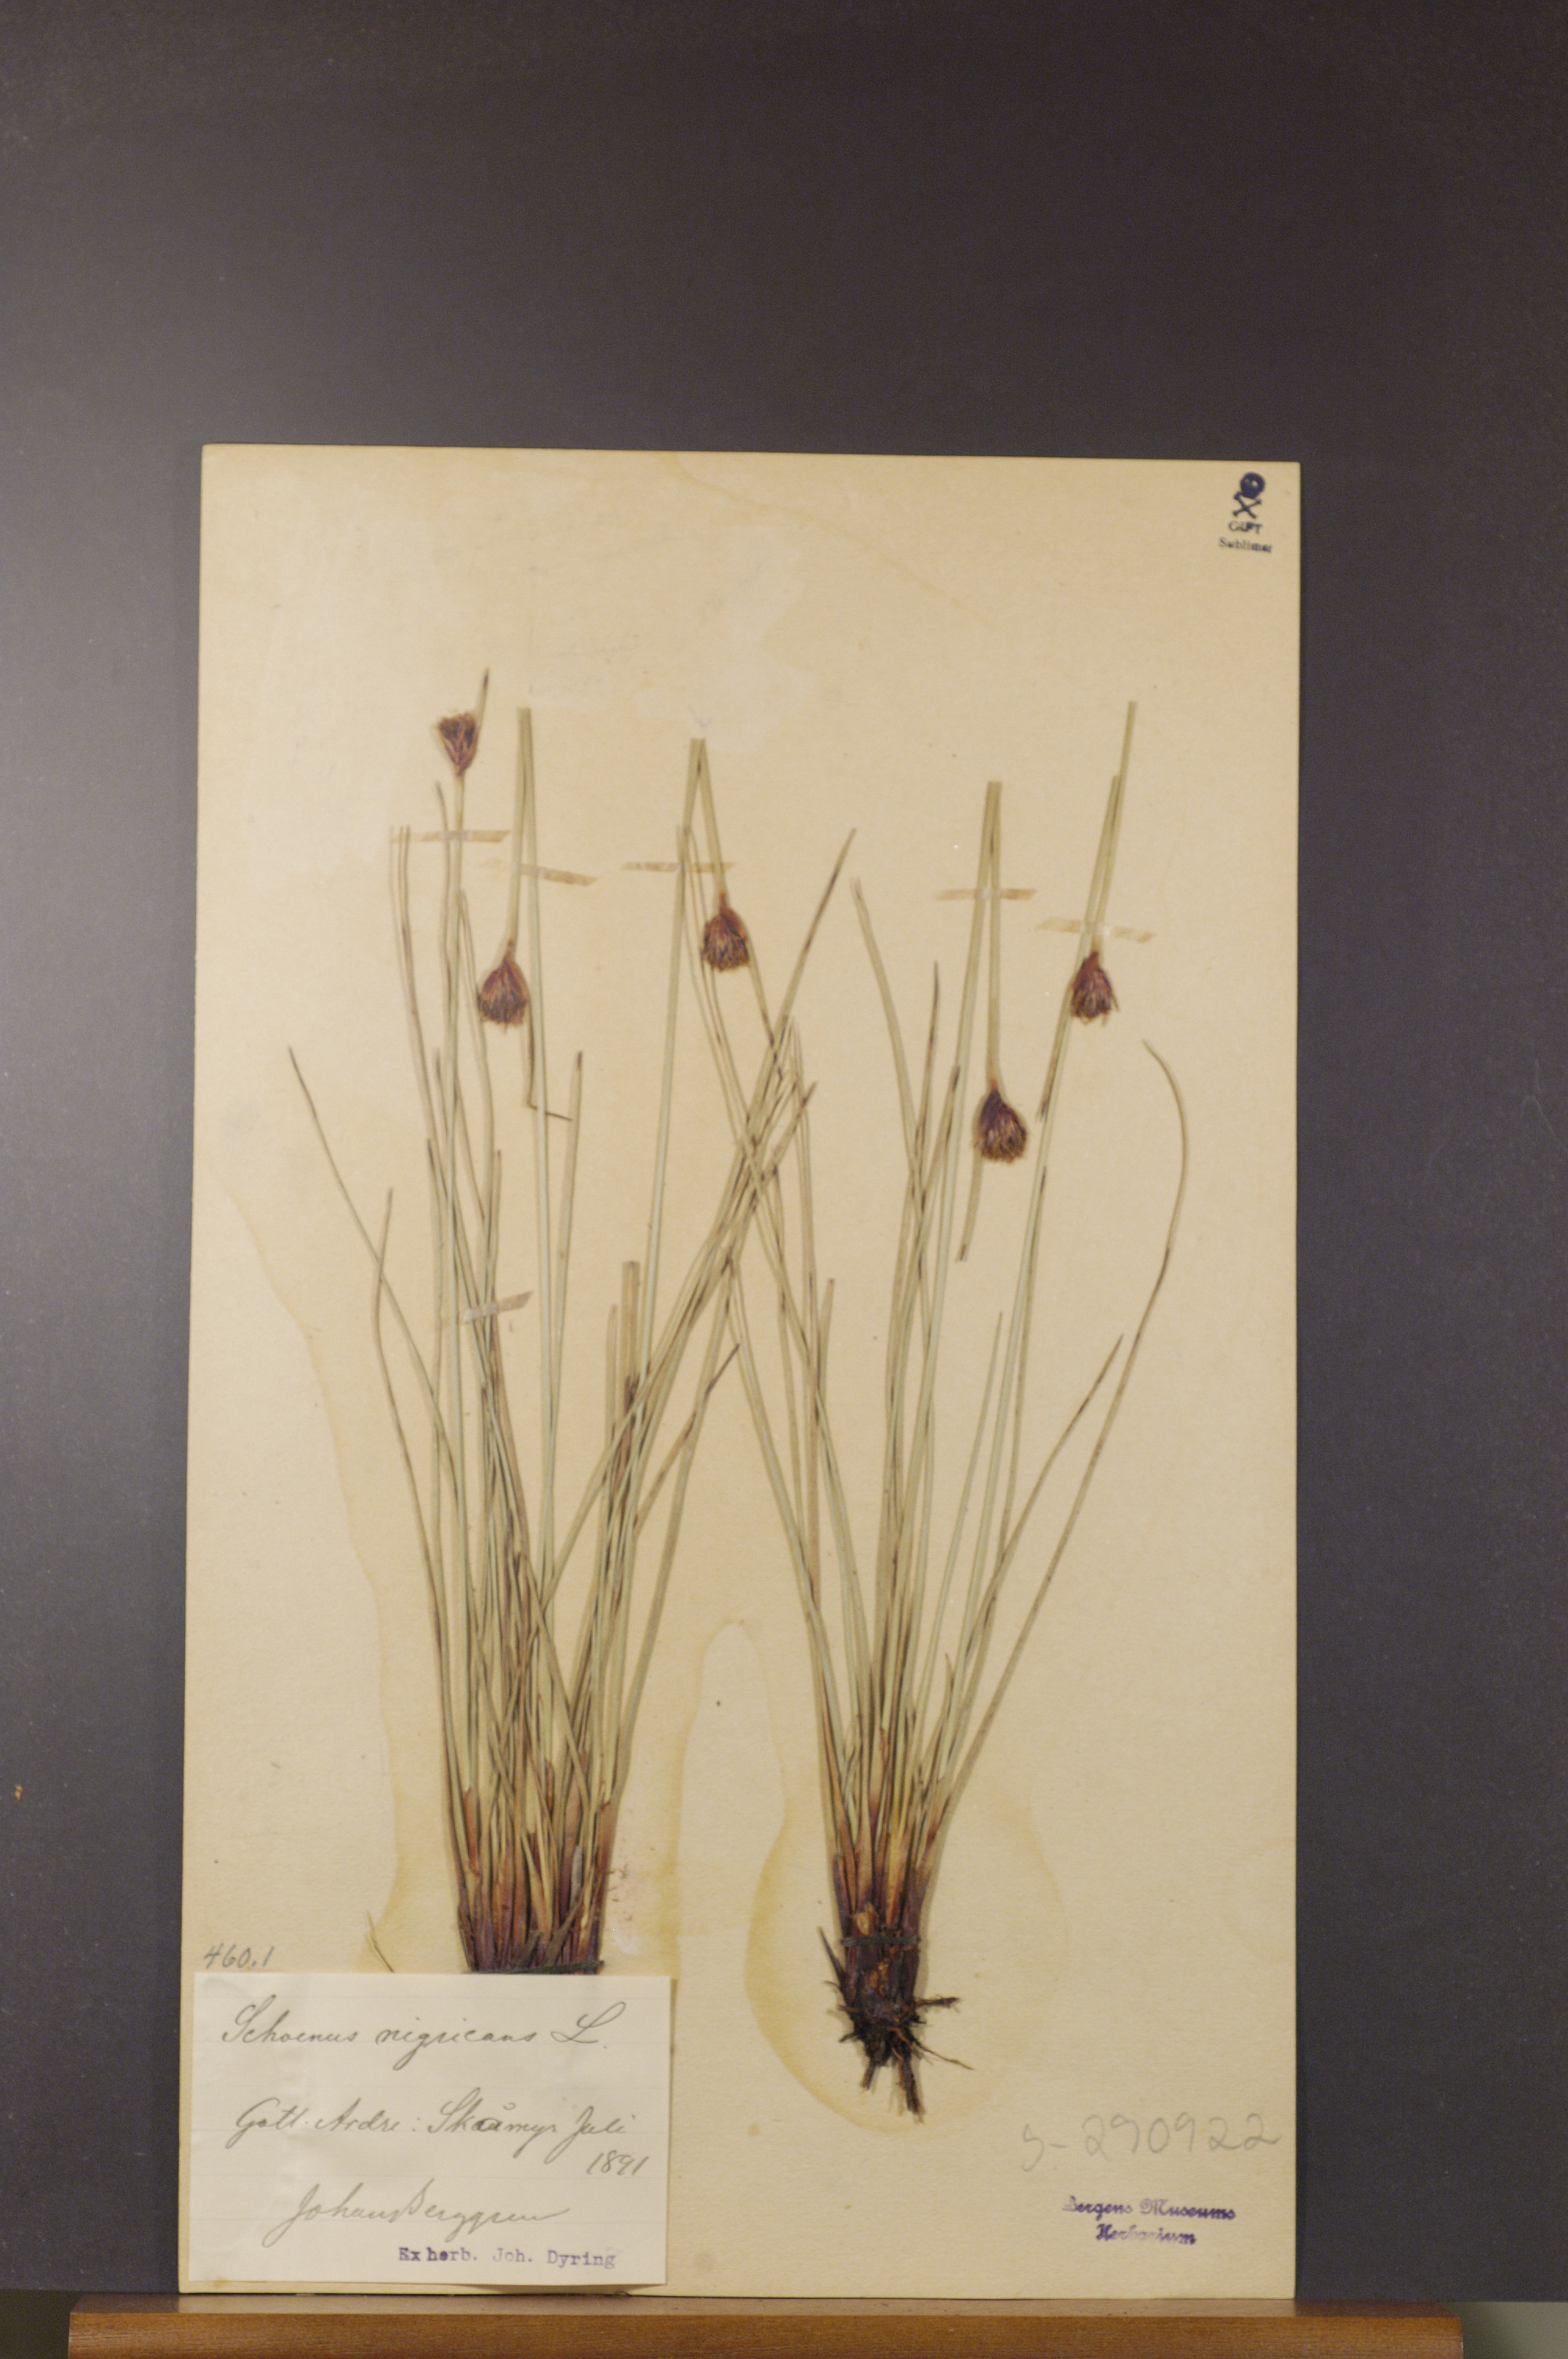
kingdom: Plantae
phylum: Tracheophyta
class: Liliopsida
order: Poales
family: Cyperaceae
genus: Schoenus
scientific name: Schoenus nigricans
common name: Black bog-rush
